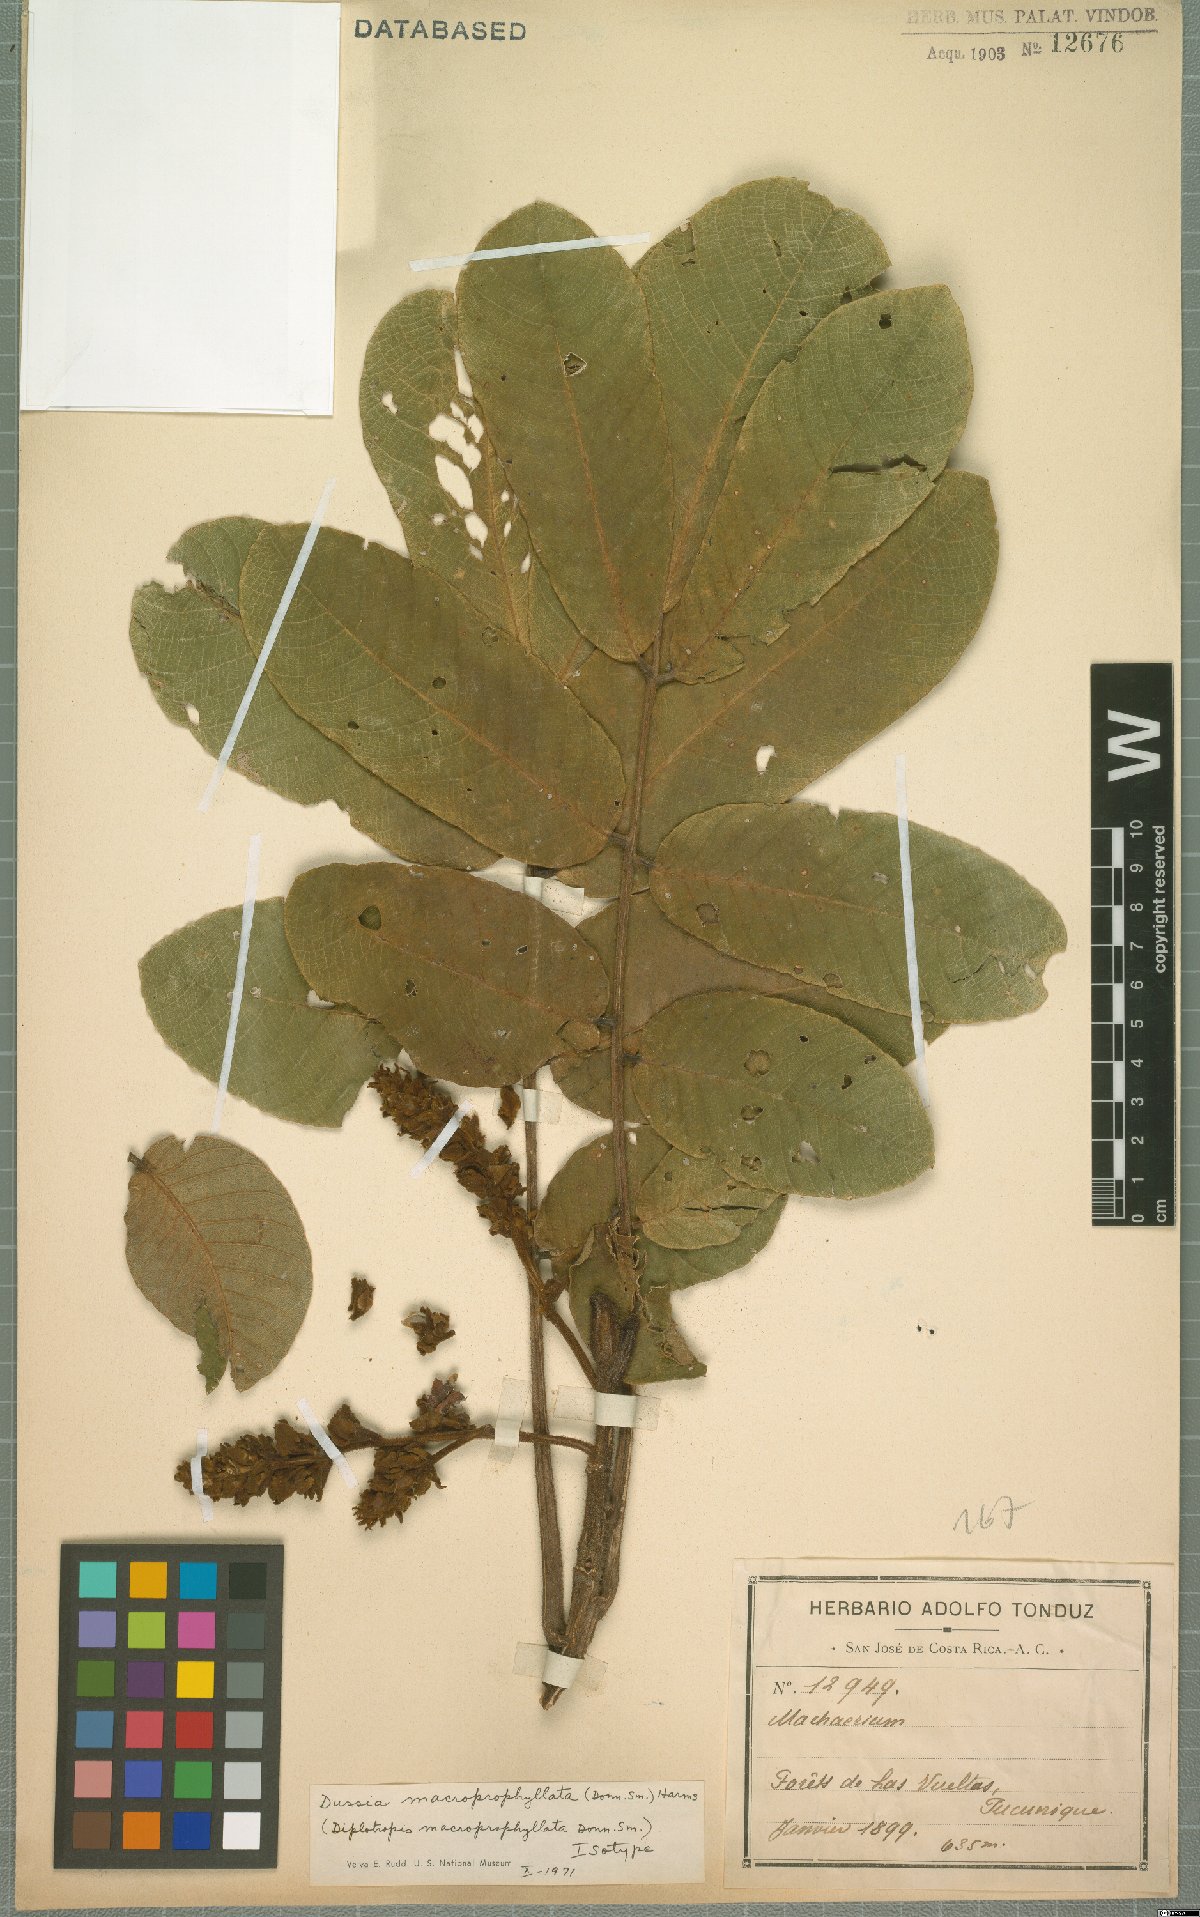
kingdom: Plantae
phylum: Tracheophyta
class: Magnoliopsida
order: Fabales
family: Fabaceae
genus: Dussia
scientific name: Dussia macroprophyllata
